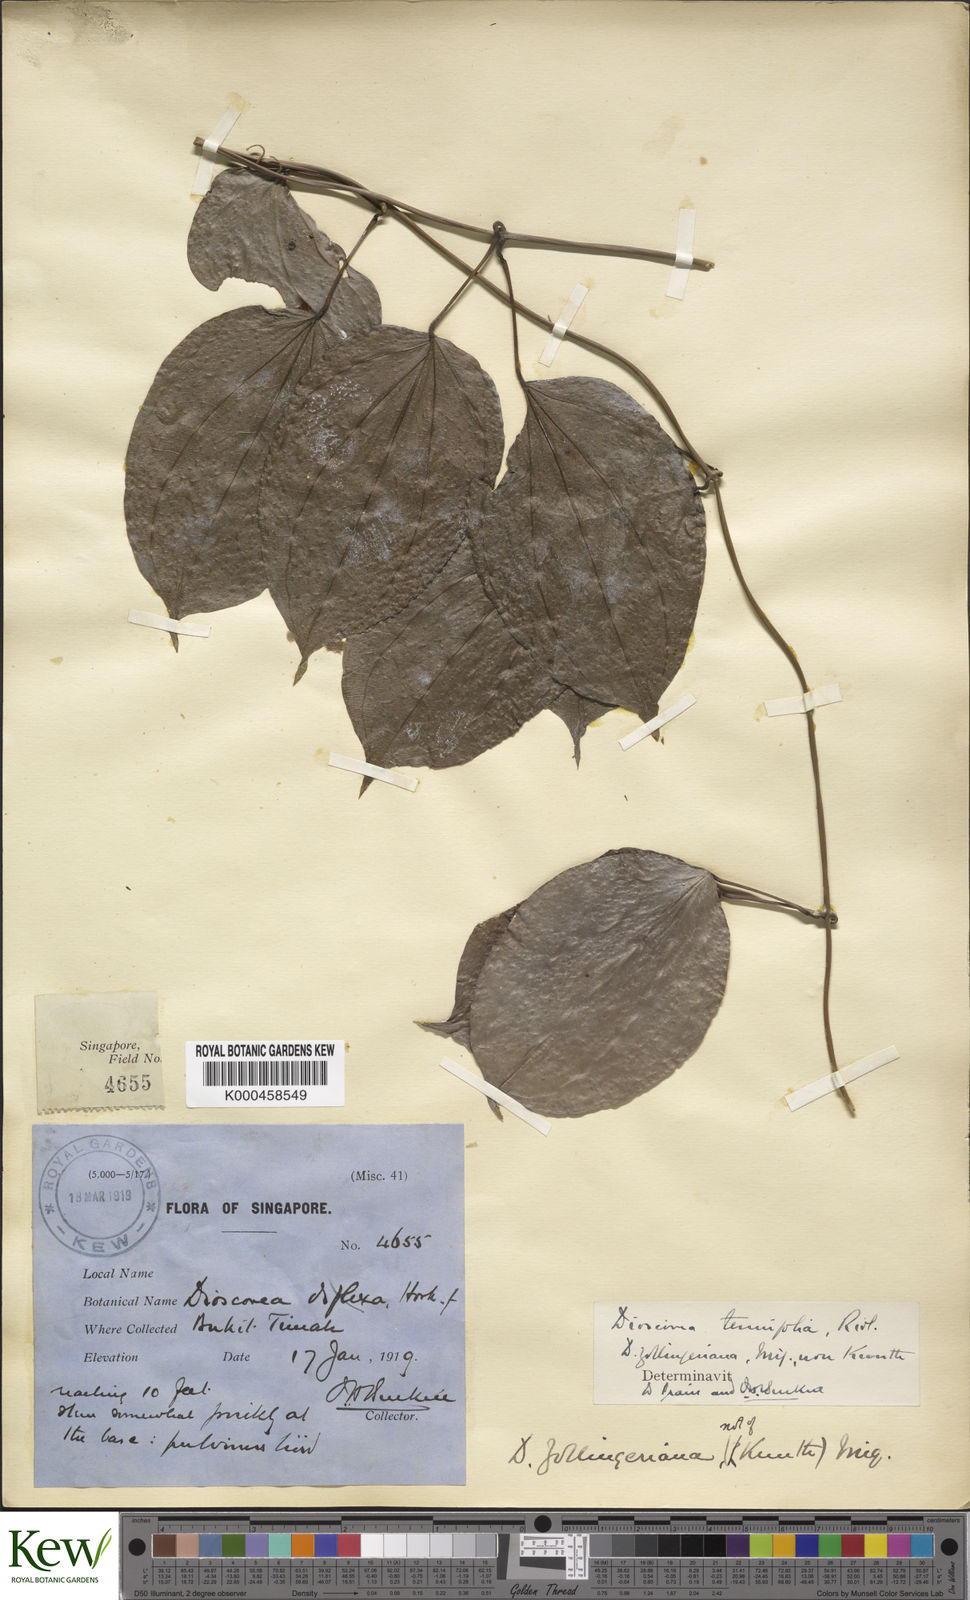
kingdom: Plantae
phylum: Tracheophyta
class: Liliopsida
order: Dioscoreales
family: Dioscoreaceae
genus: Dioscorea
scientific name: Dioscorea tenuifolia
